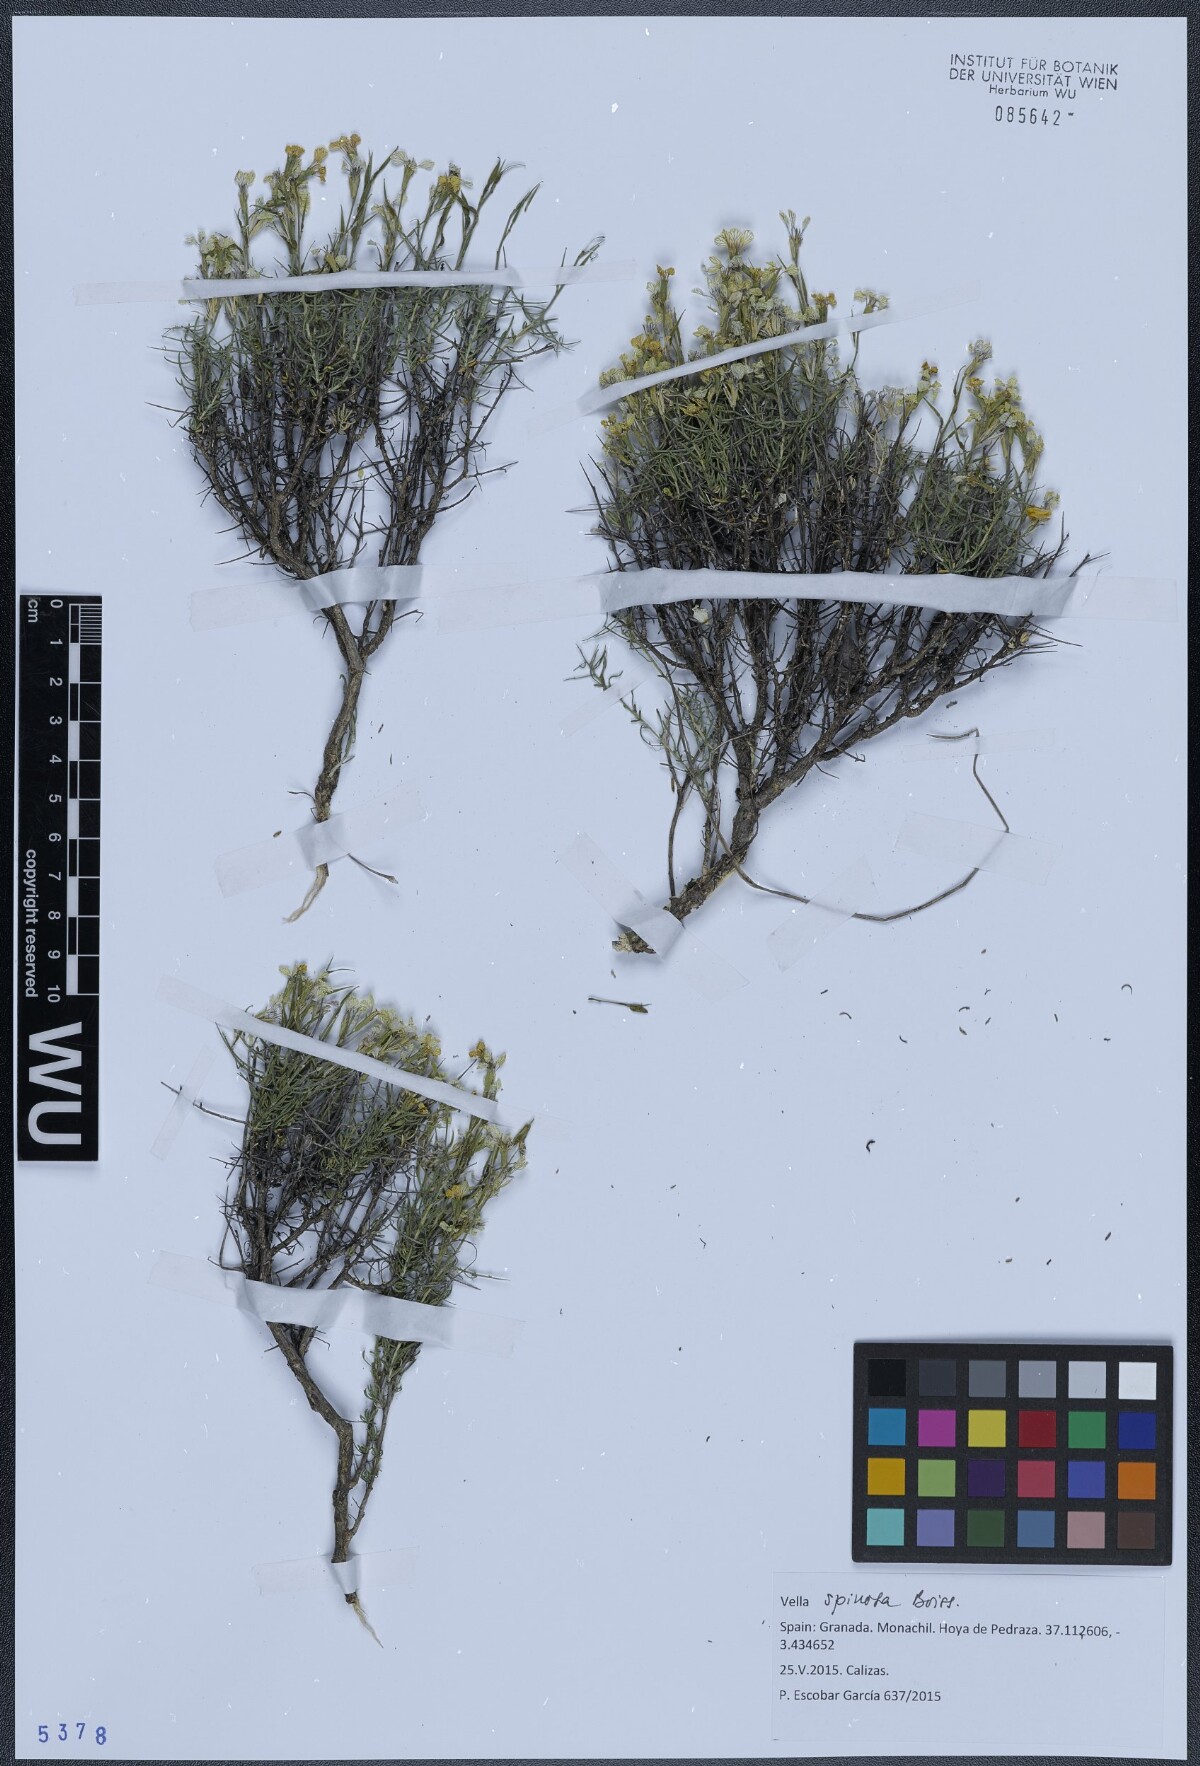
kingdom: Plantae
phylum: Tracheophyta
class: Magnoliopsida
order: Brassicales
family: Brassicaceae
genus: Vella
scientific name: Vella spinosa
